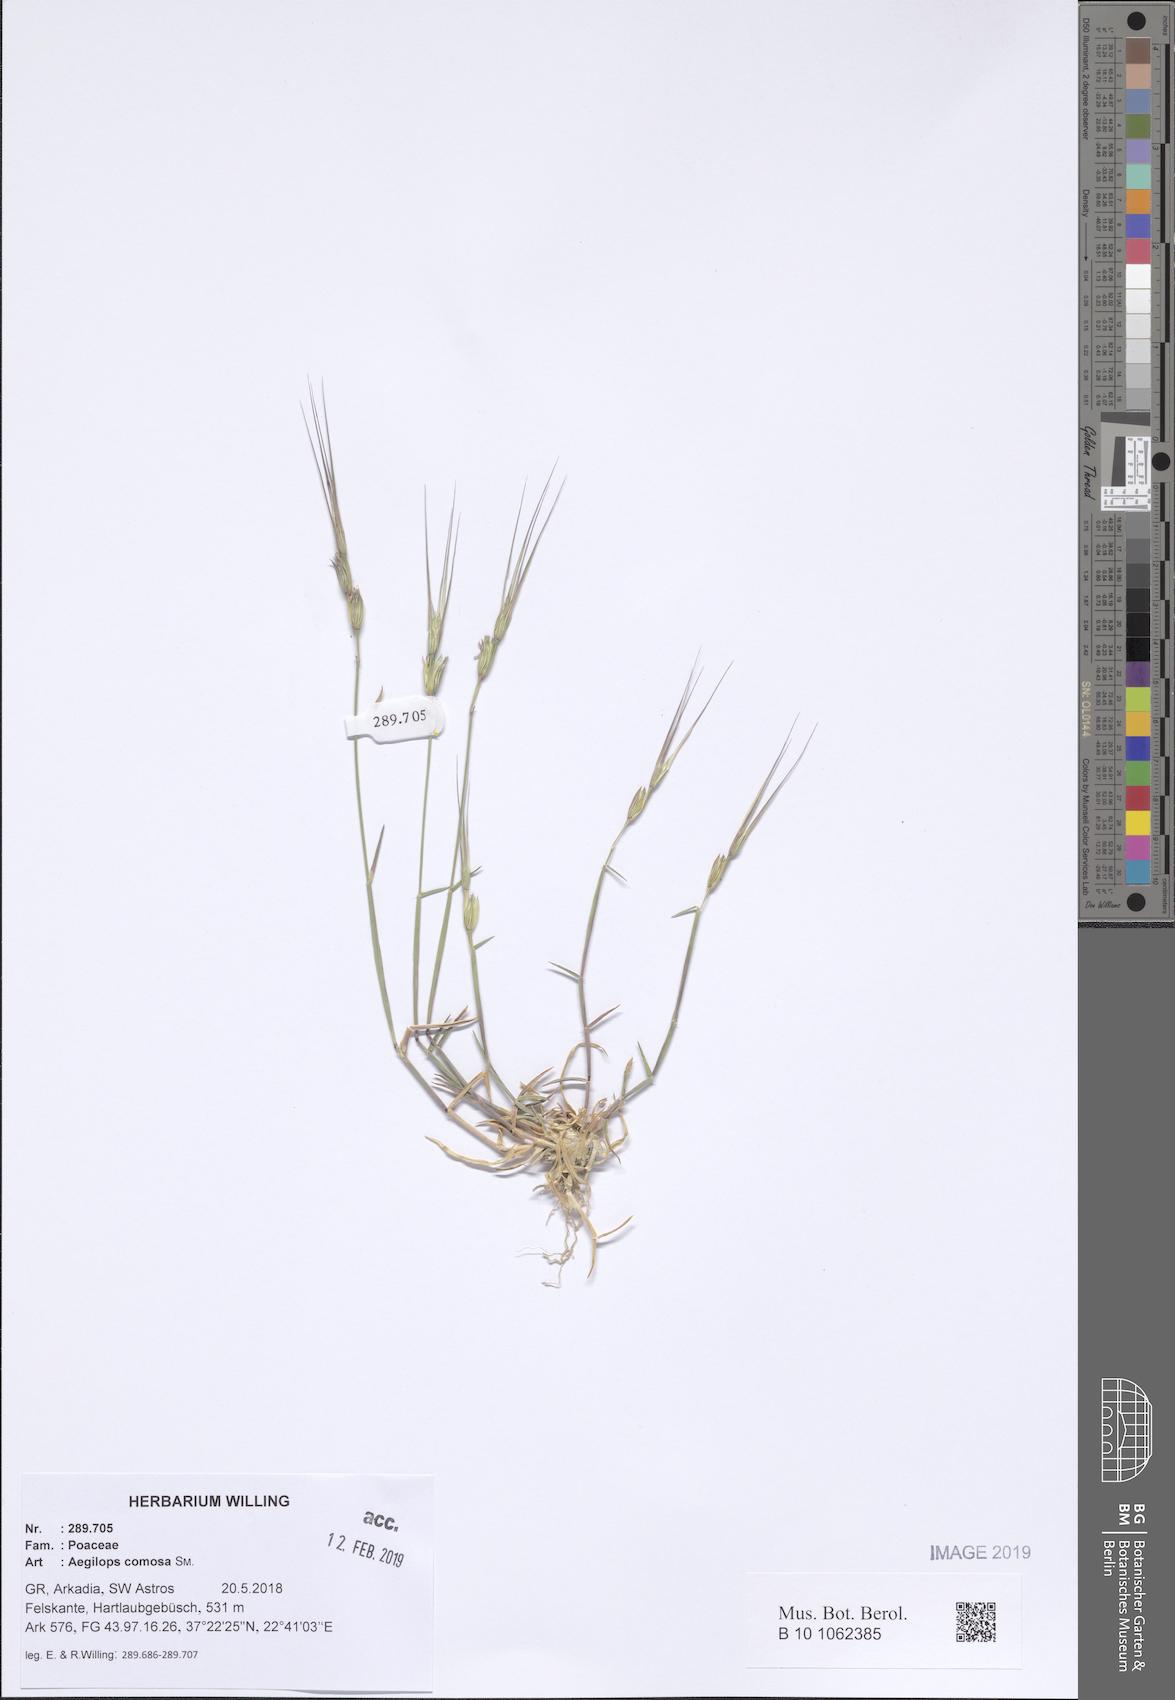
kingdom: Plantae
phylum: Tracheophyta
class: Liliopsida
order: Poales
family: Poaceae
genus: Aegilops
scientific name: Aegilops comosa
